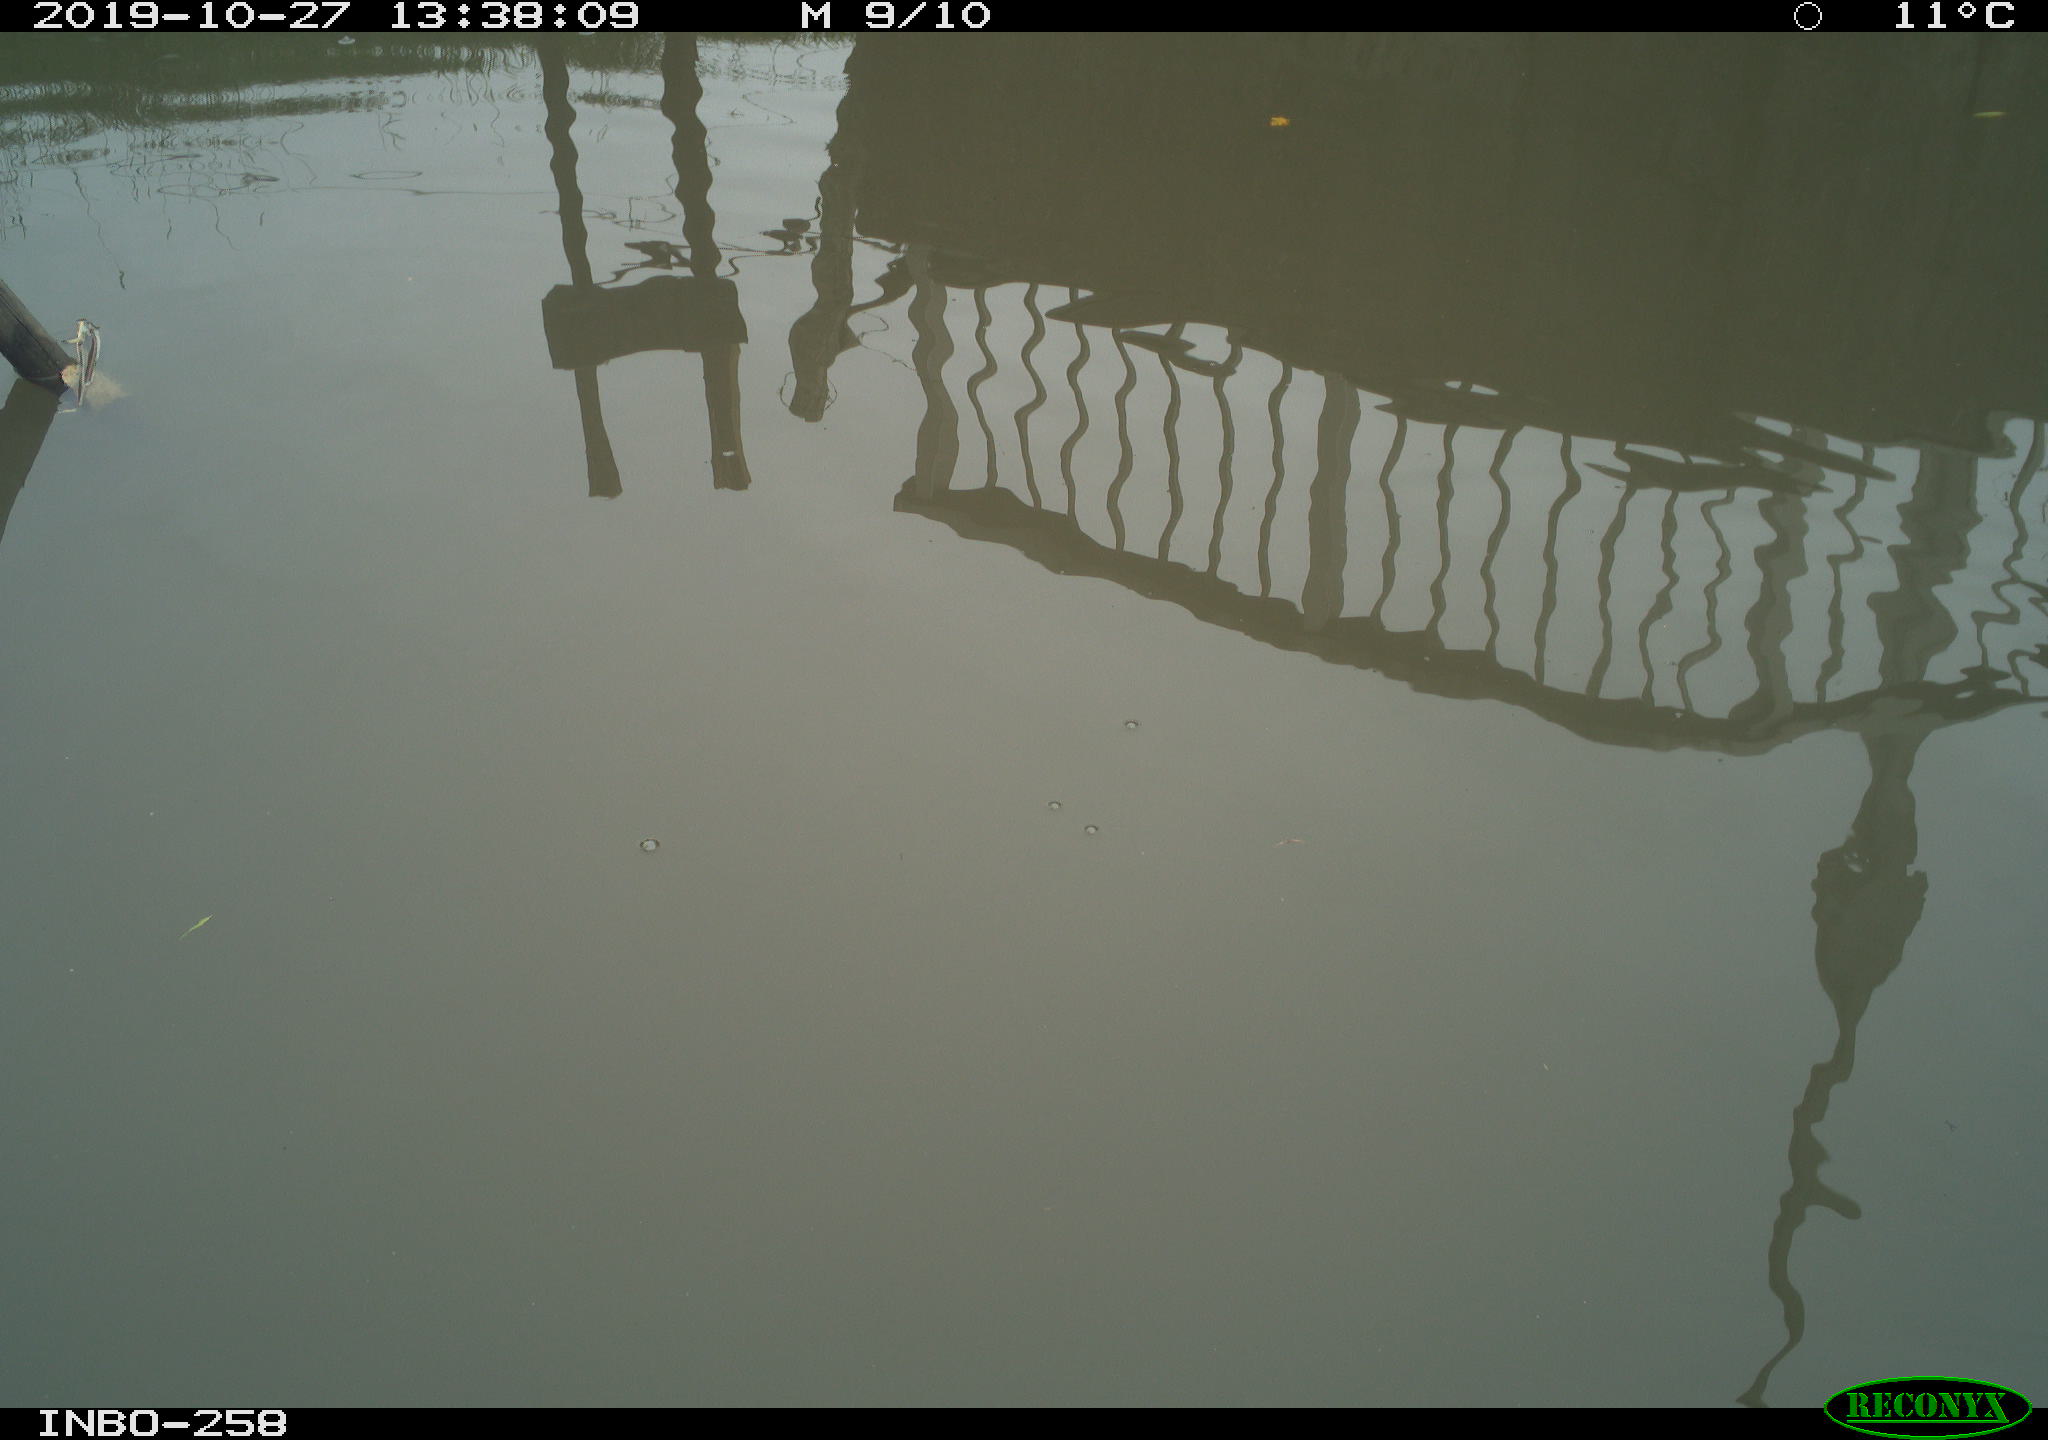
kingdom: Animalia
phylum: Chordata
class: Aves
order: Gruiformes
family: Rallidae
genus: Gallinula
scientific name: Gallinula chloropus
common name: Common moorhen
